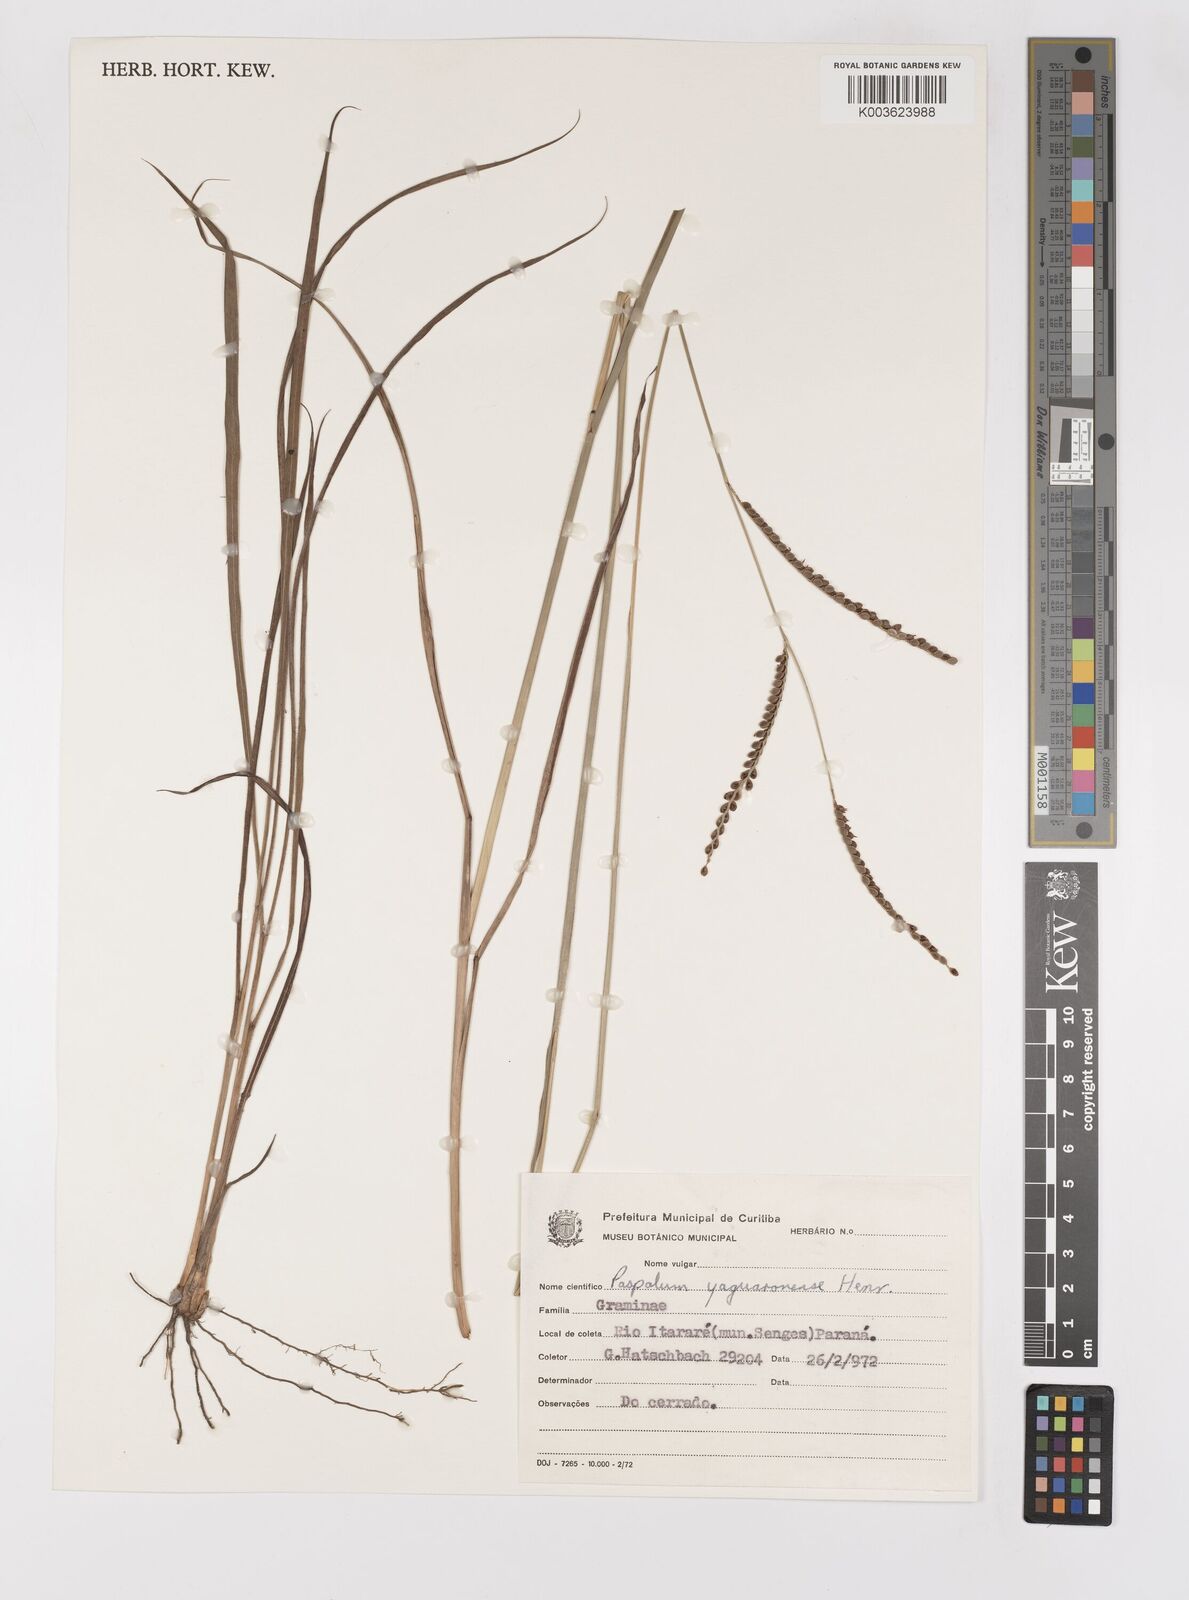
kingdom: Plantae
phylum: Tracheophyta
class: Liliopsida
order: Poales
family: Poaceae
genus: Paspalum
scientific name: Paspalum glaucescens
